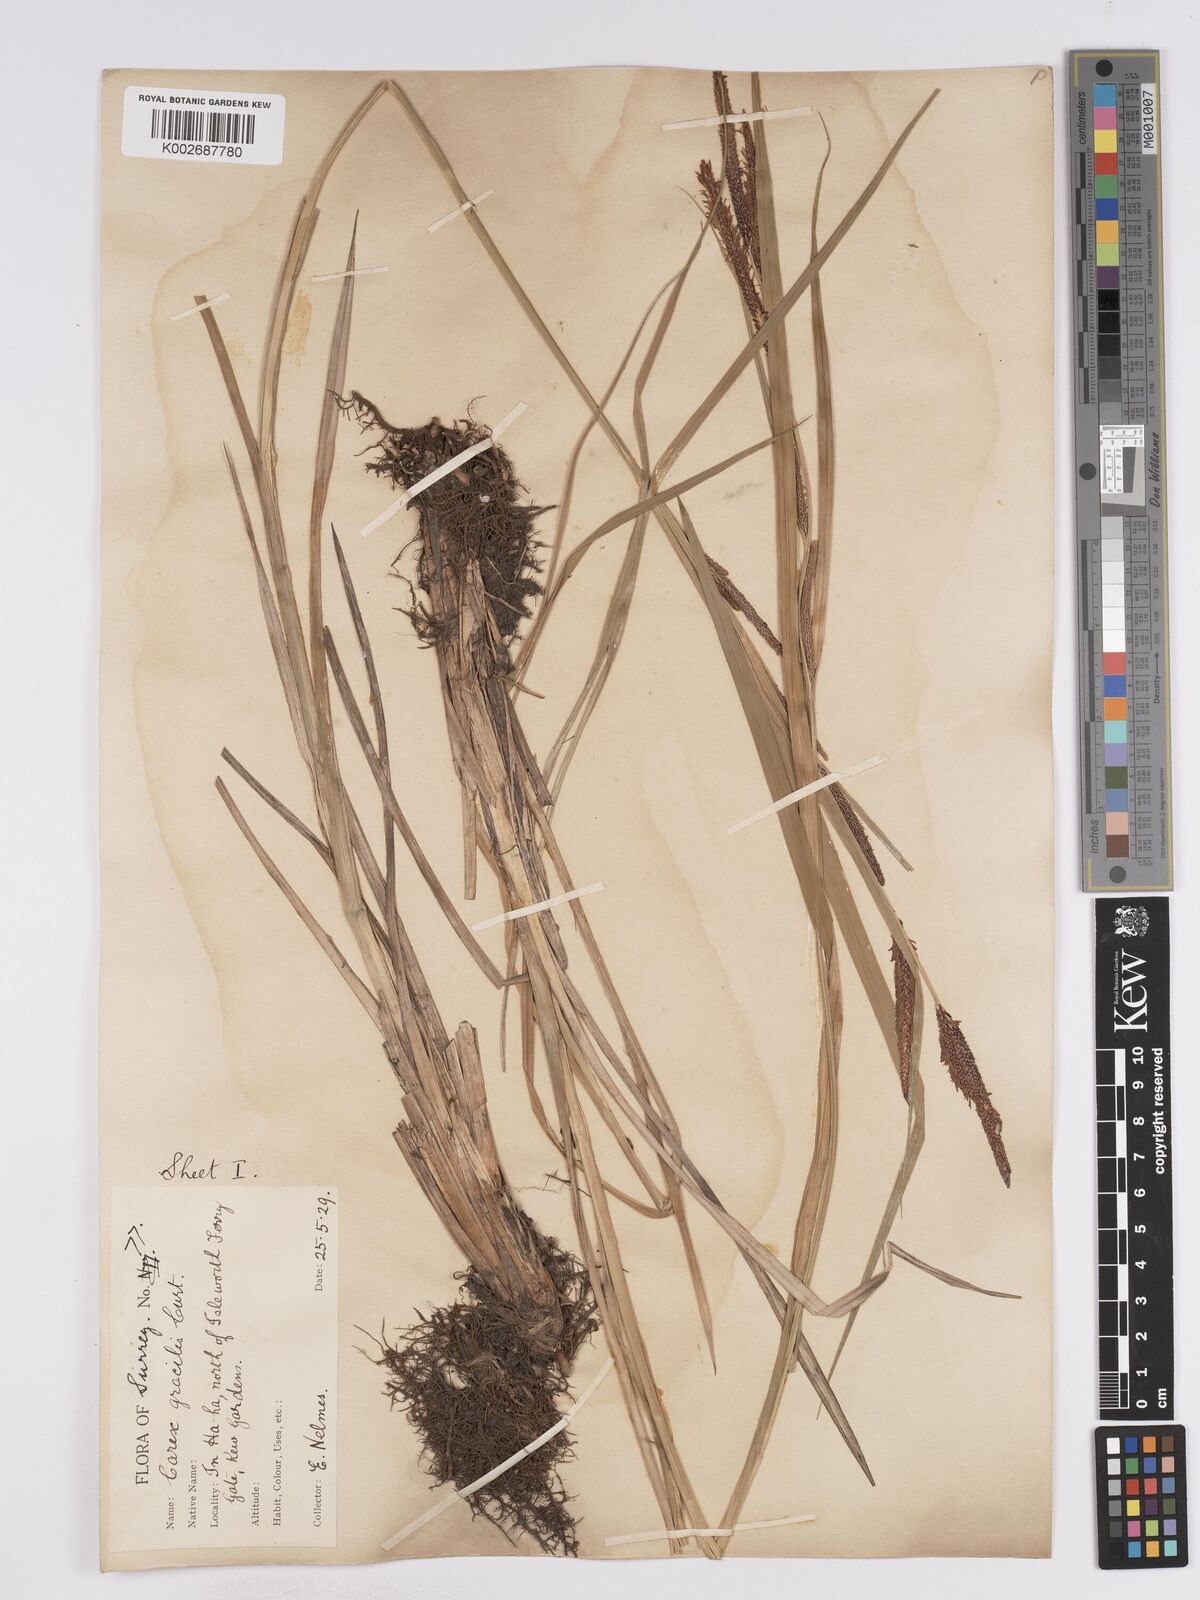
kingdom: Plantae
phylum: Tracheophyta
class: Liliopsida
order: Poales
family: Cyperaceae
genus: Carex
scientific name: Carex acuta
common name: Slender tufted-sedge
